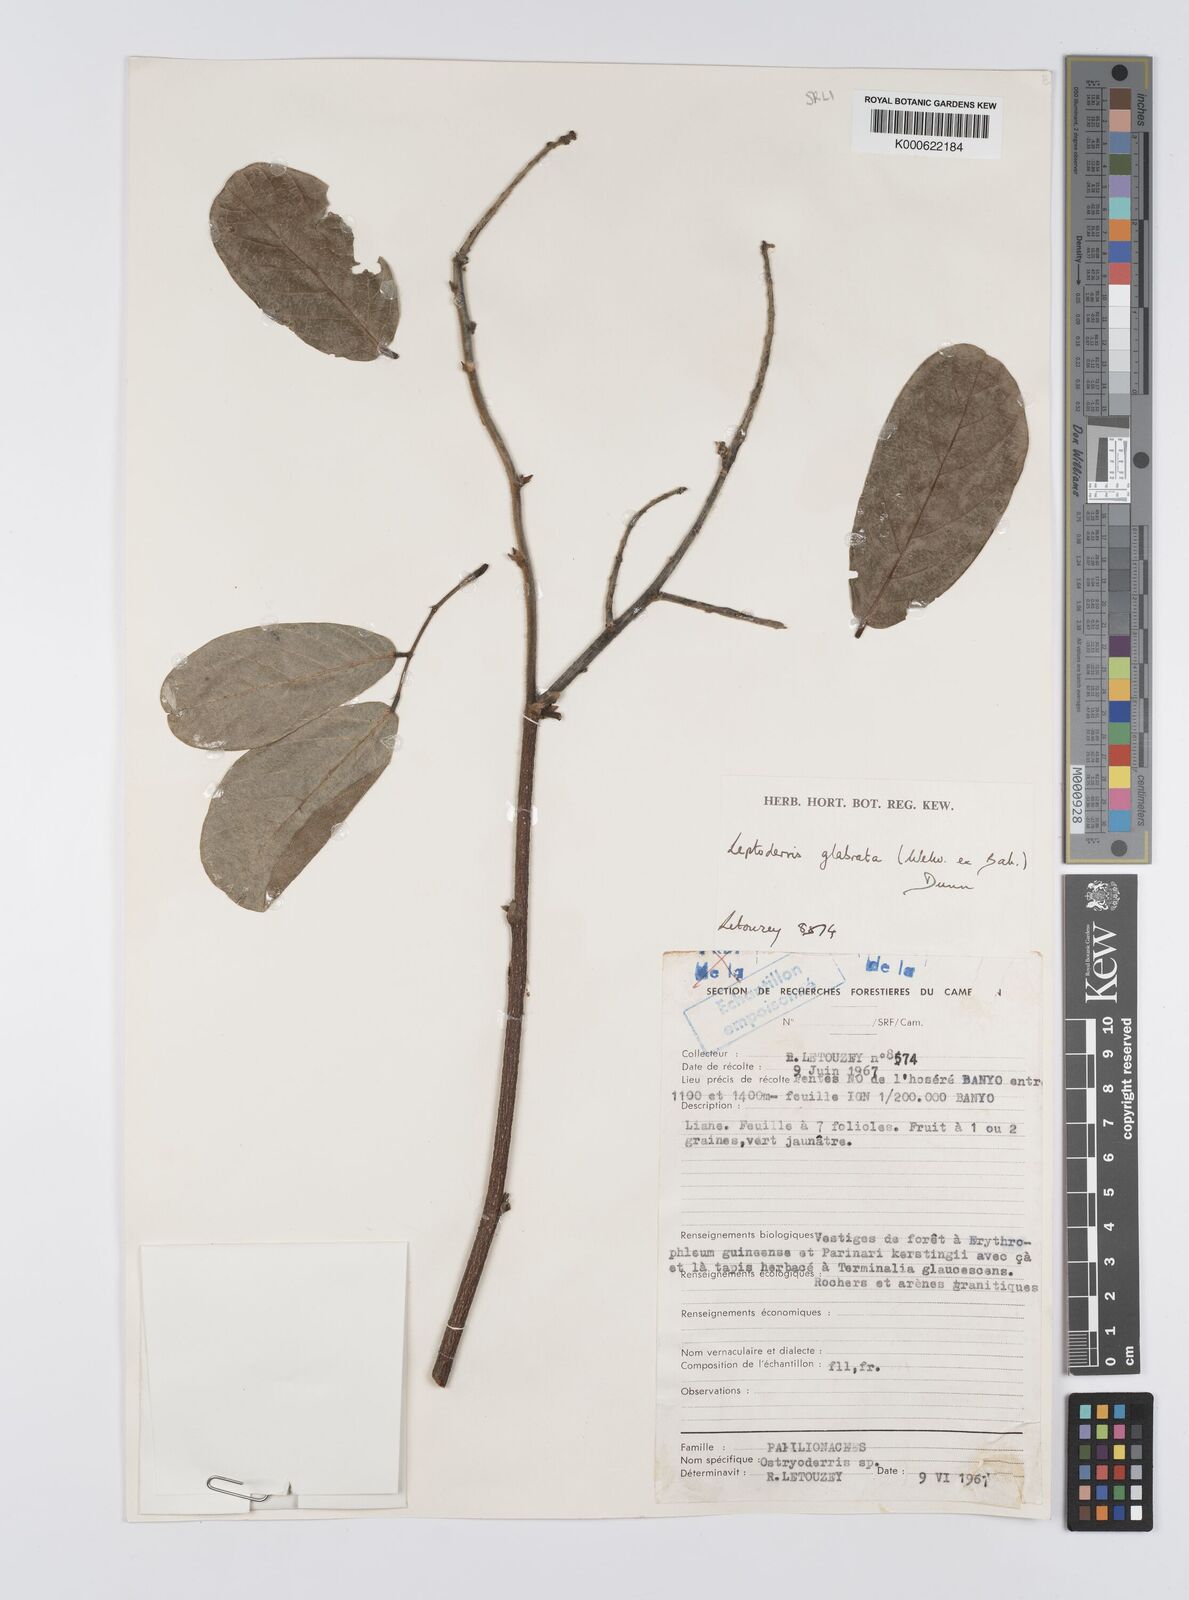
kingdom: Plantae
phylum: Tracheophyta
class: Magnoliopsida
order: Fabales
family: Fabaceae
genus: Leptoderris
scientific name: Leptoderris glabrata
